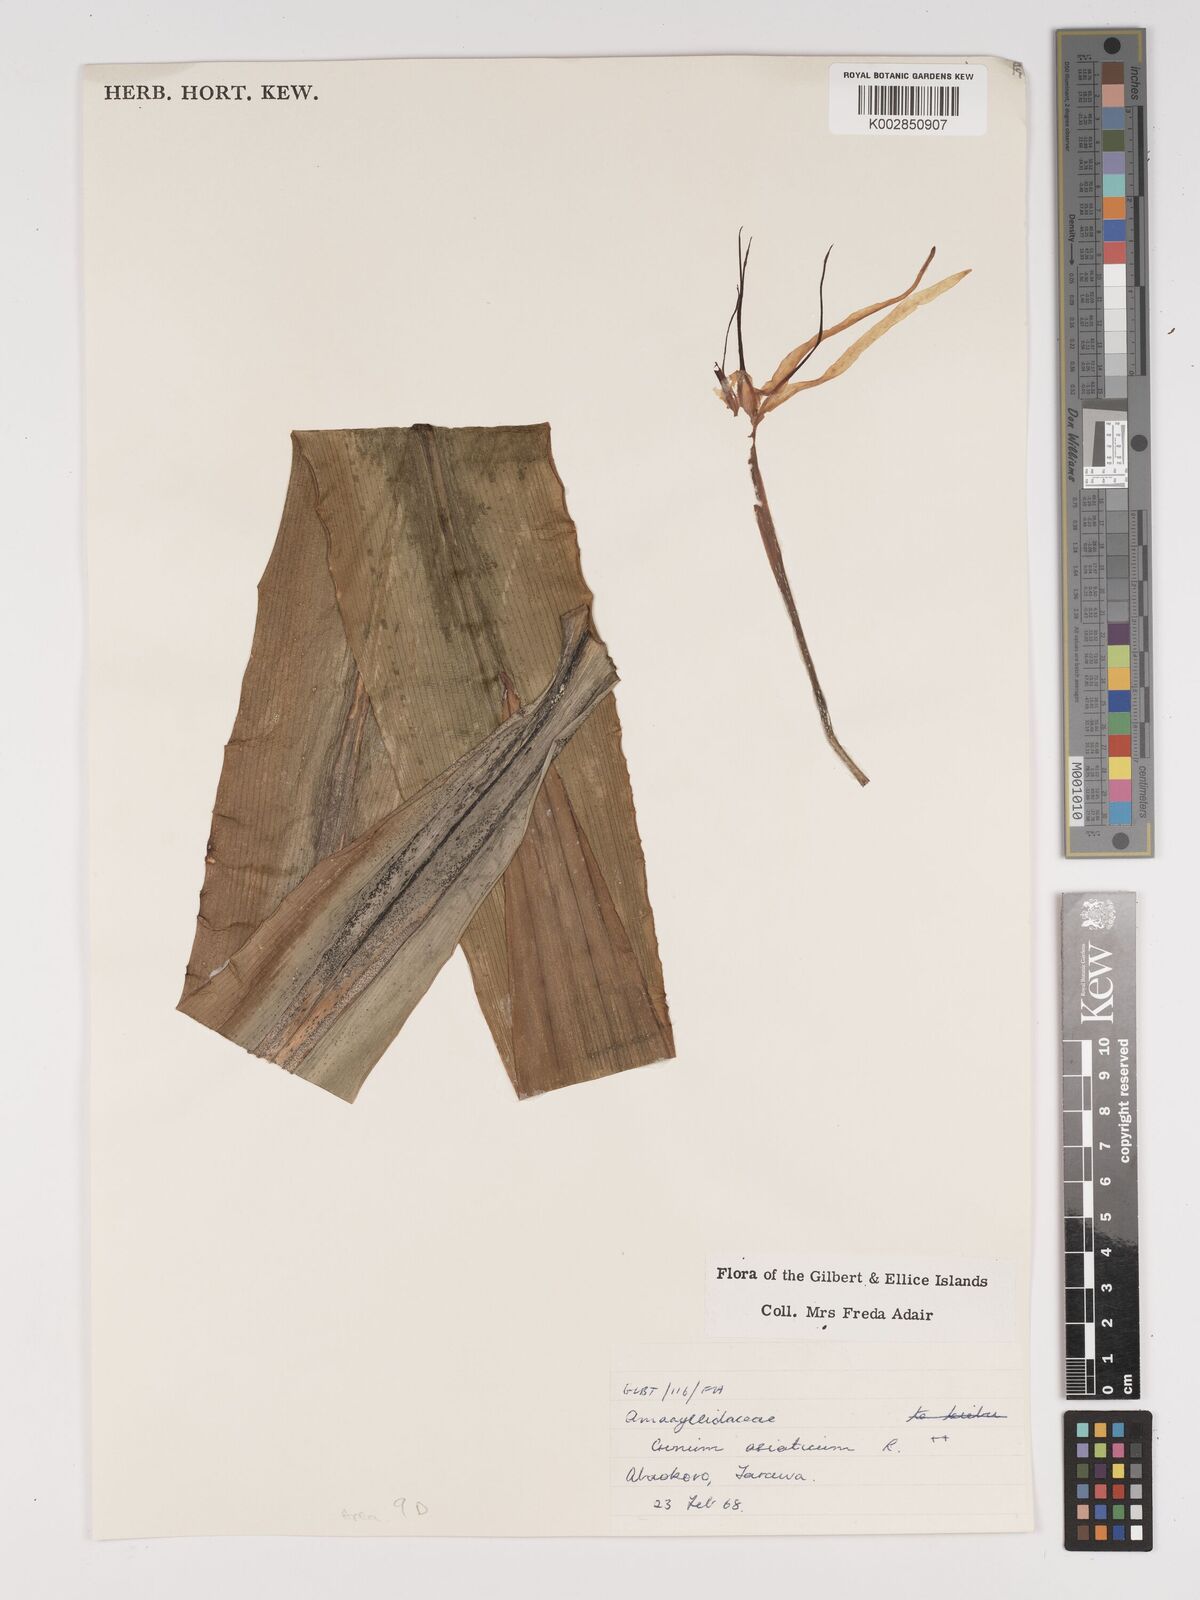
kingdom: Plantae
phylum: Tracheophyta
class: Liliopsida
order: Asparagales
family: Amaryllidaceae
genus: Crinum
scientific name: Crinum asiaticum
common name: Poisonbulb
